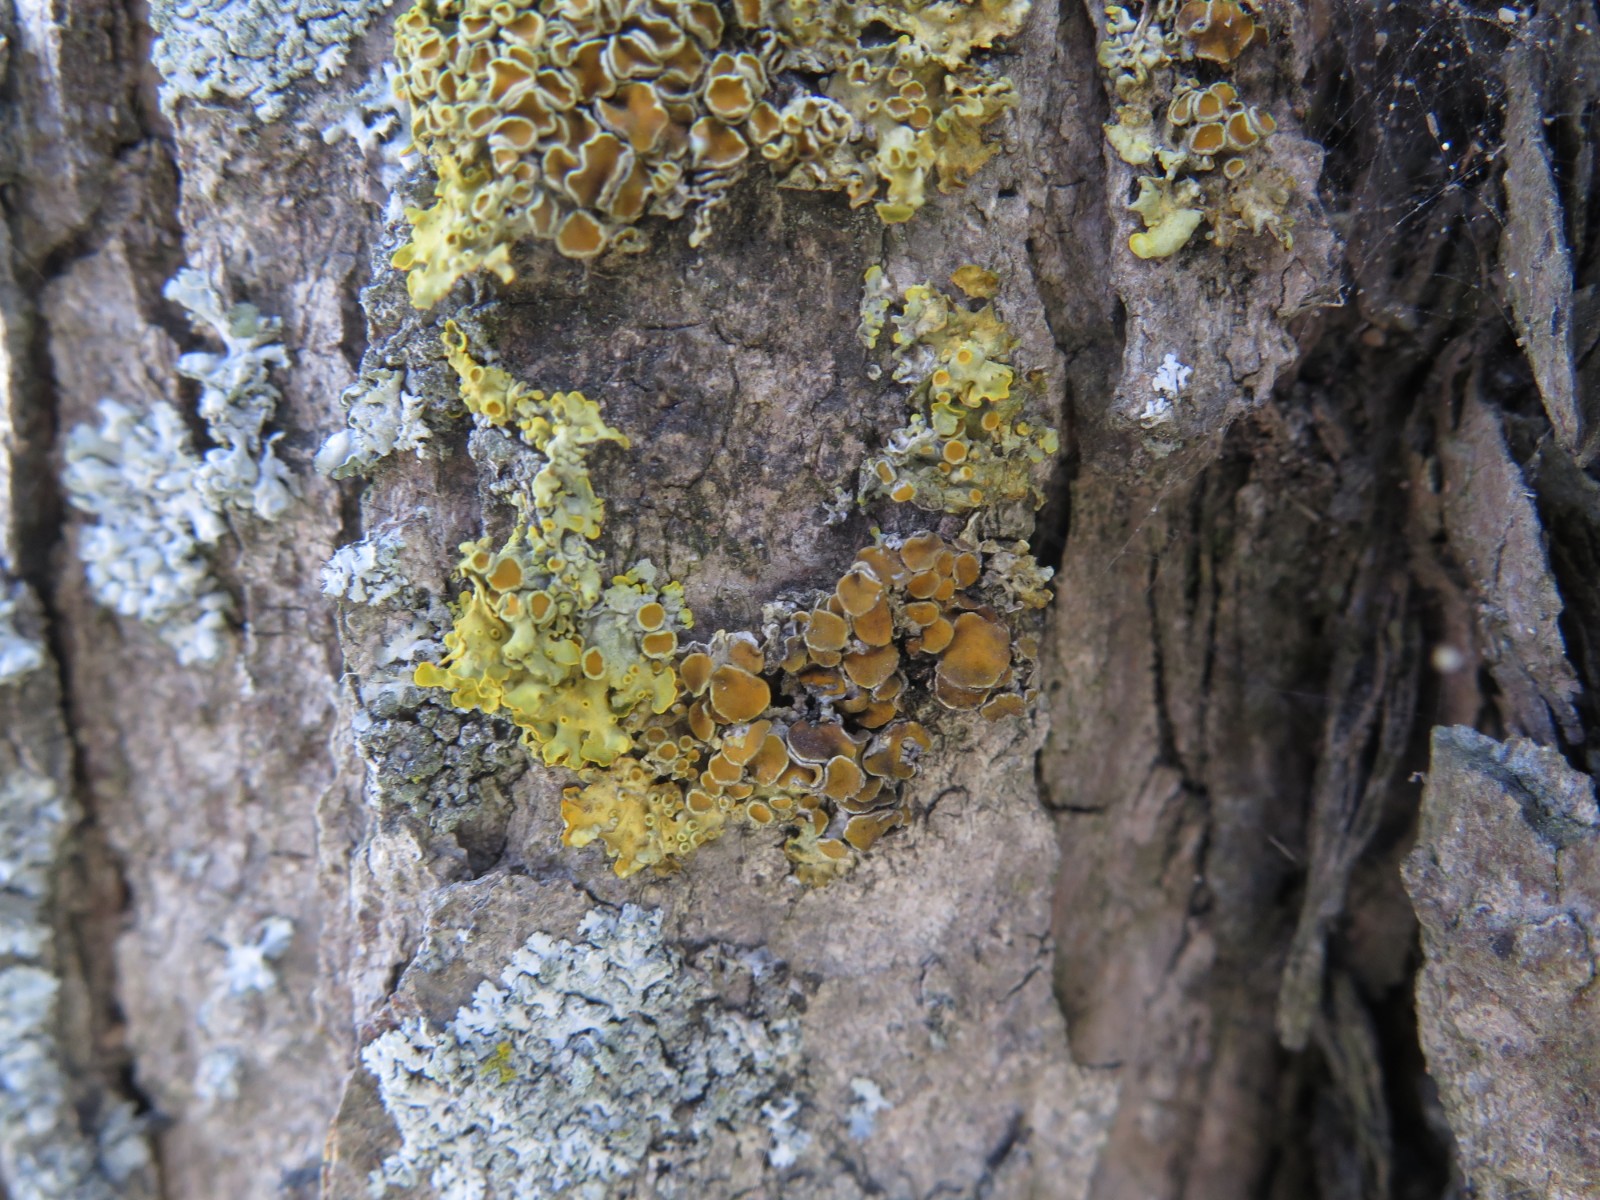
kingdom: Fungi
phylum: Ascomycota
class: Dothideomycetes
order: Mycosphaerellales
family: Teratosphaeriaceae
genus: Xanthoriicola
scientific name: Xanthoriicola physciae
